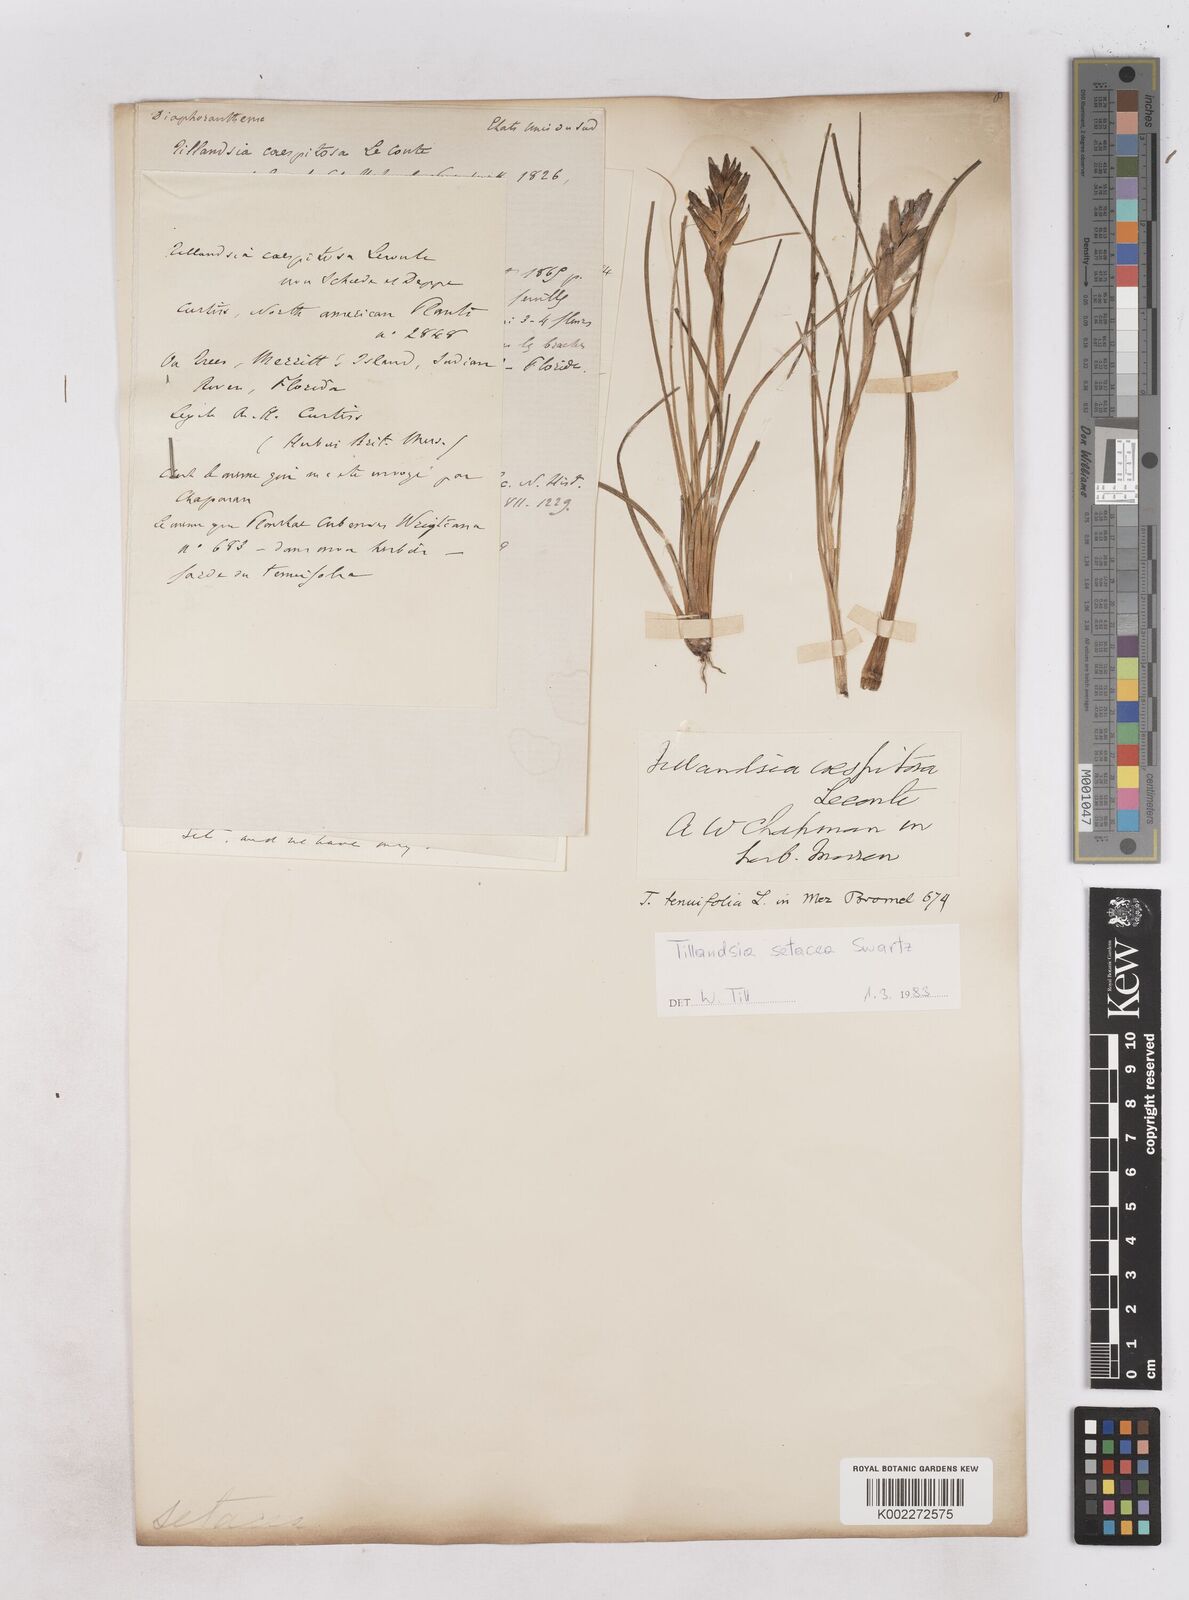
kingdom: Plantae
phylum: Tracheophyta
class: Liliopsida
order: Poales
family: Bromeliaceae
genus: Tillandsia
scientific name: Tillandsia
